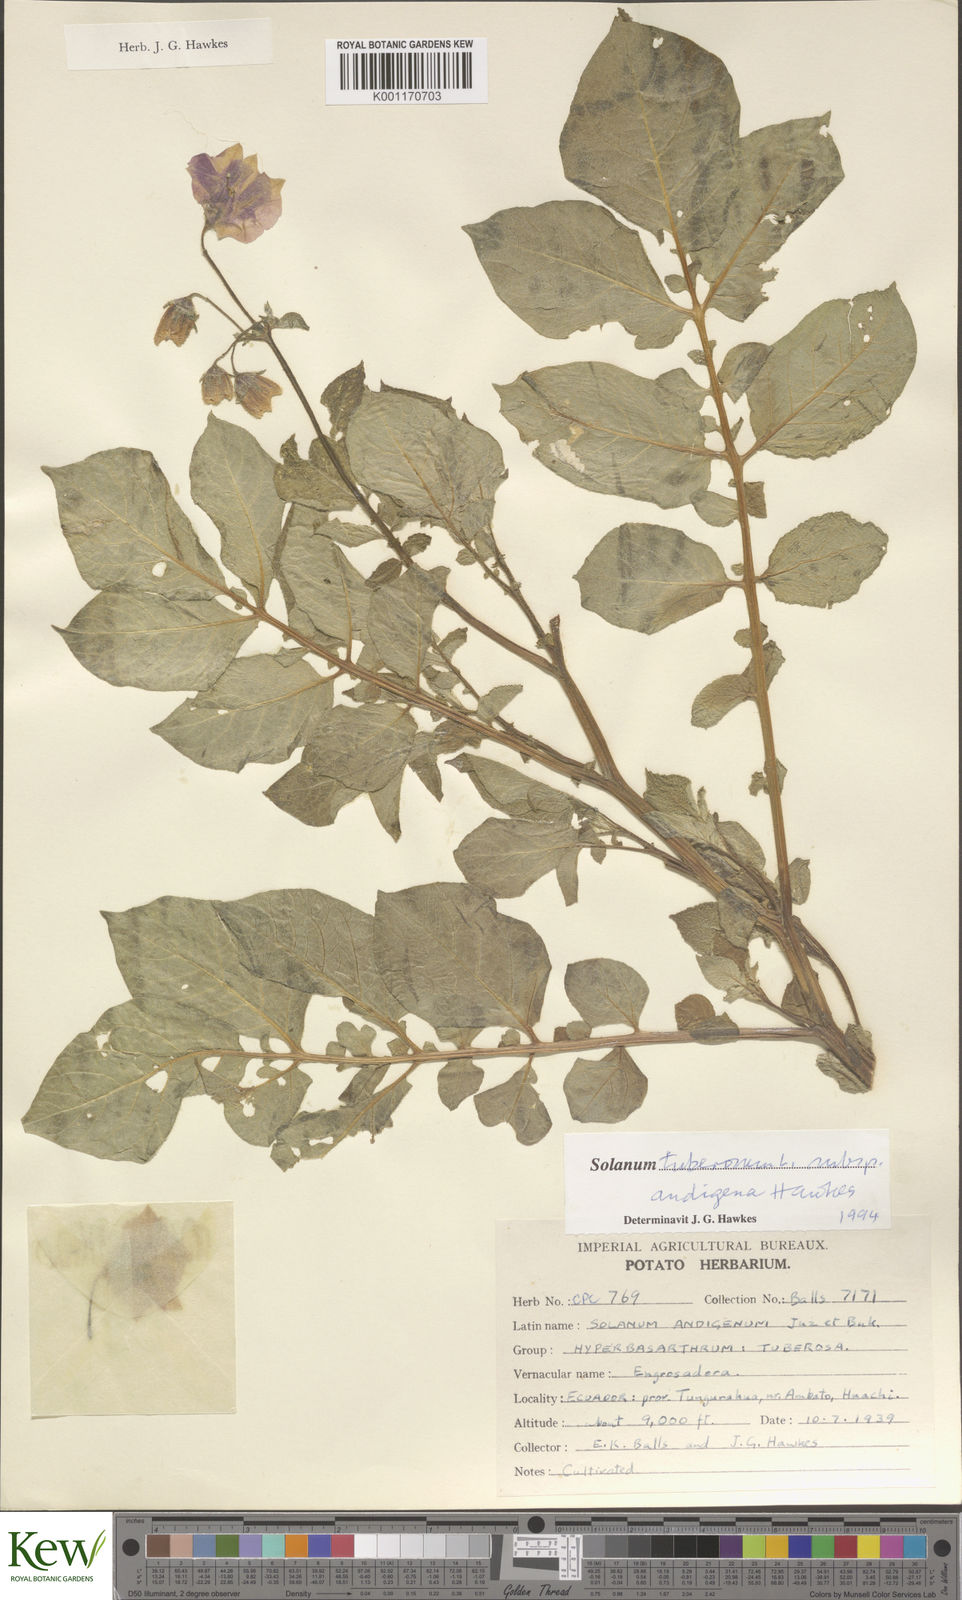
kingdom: Plantae
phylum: Tracheophyta
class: Magnoliopsida
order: Solanales
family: Solanaceae
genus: Solanum
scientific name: Solanum tuberosum
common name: Potato
